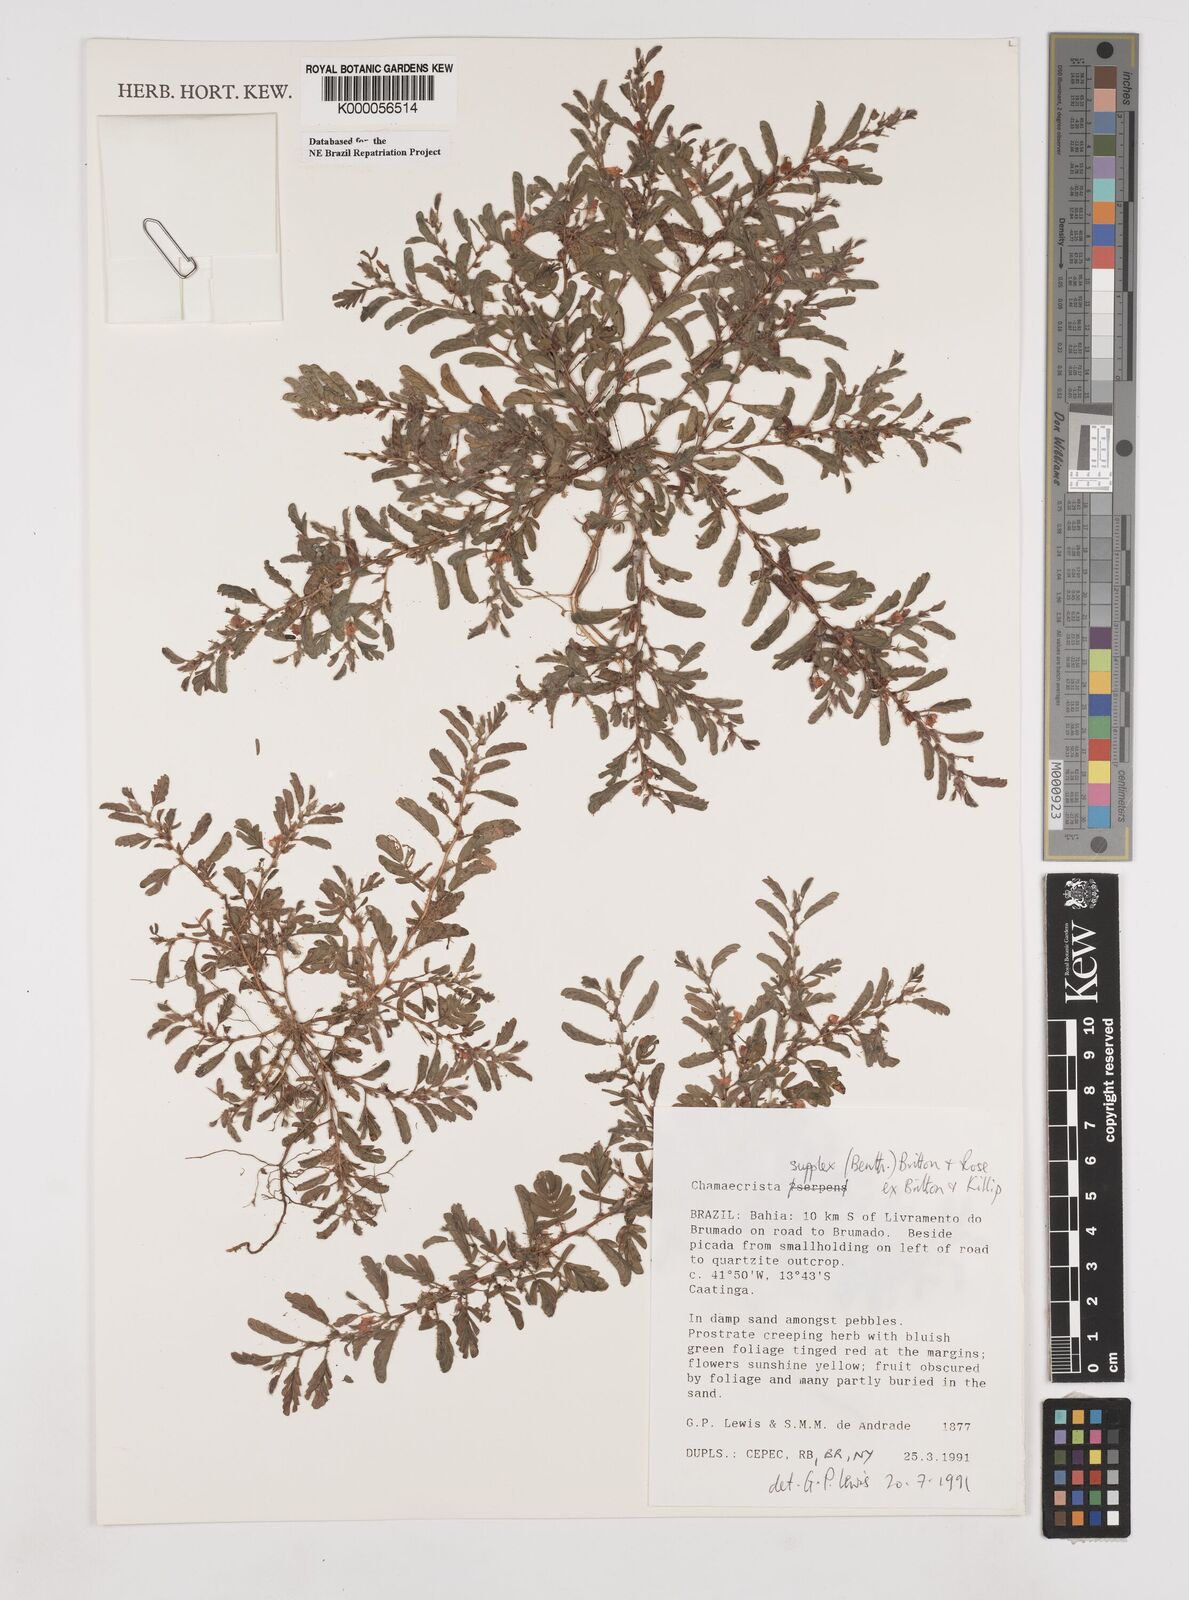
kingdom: Plantae
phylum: Tracheophyta
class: Magnoliopsida
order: Fabales
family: Fabaceae
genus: Chamaecrista
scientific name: Chamaecrista supplex
